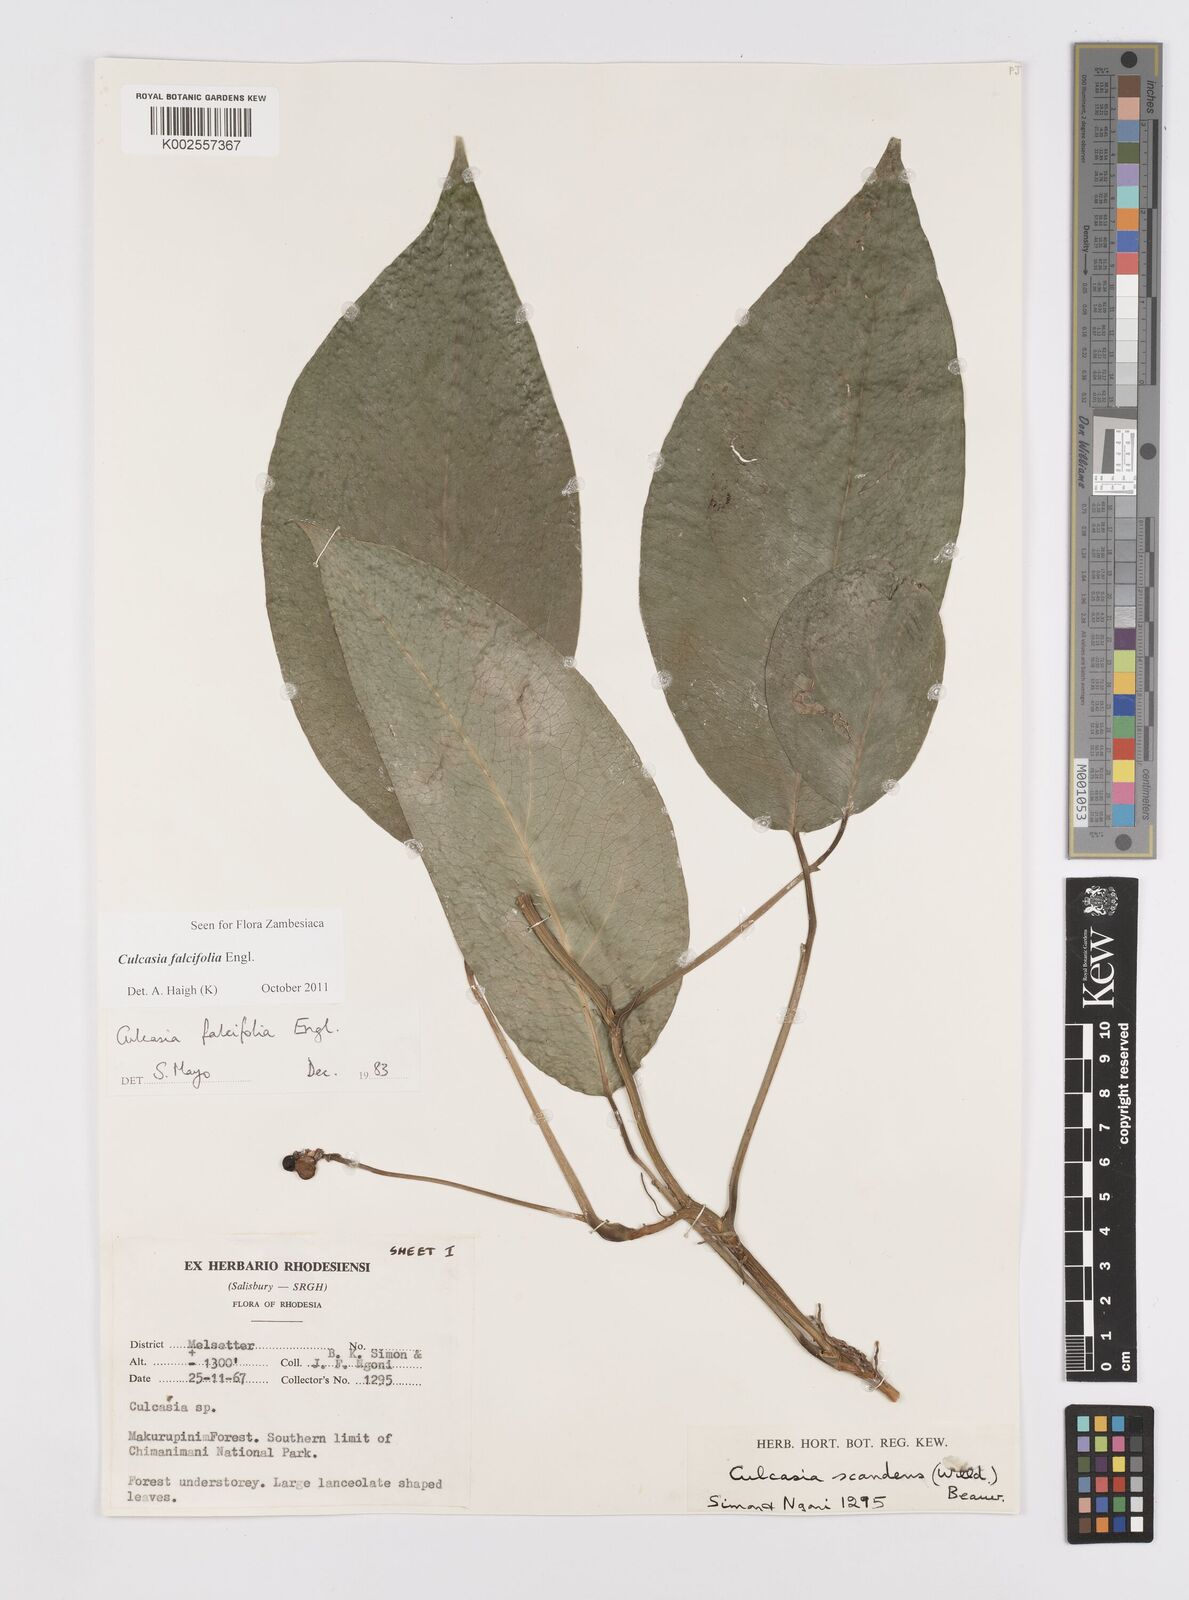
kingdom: Plantae
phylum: Tracheophyta
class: Liliopsida
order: Alismatales
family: Araceae
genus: Culcasia
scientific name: Culcasia falcifolia
